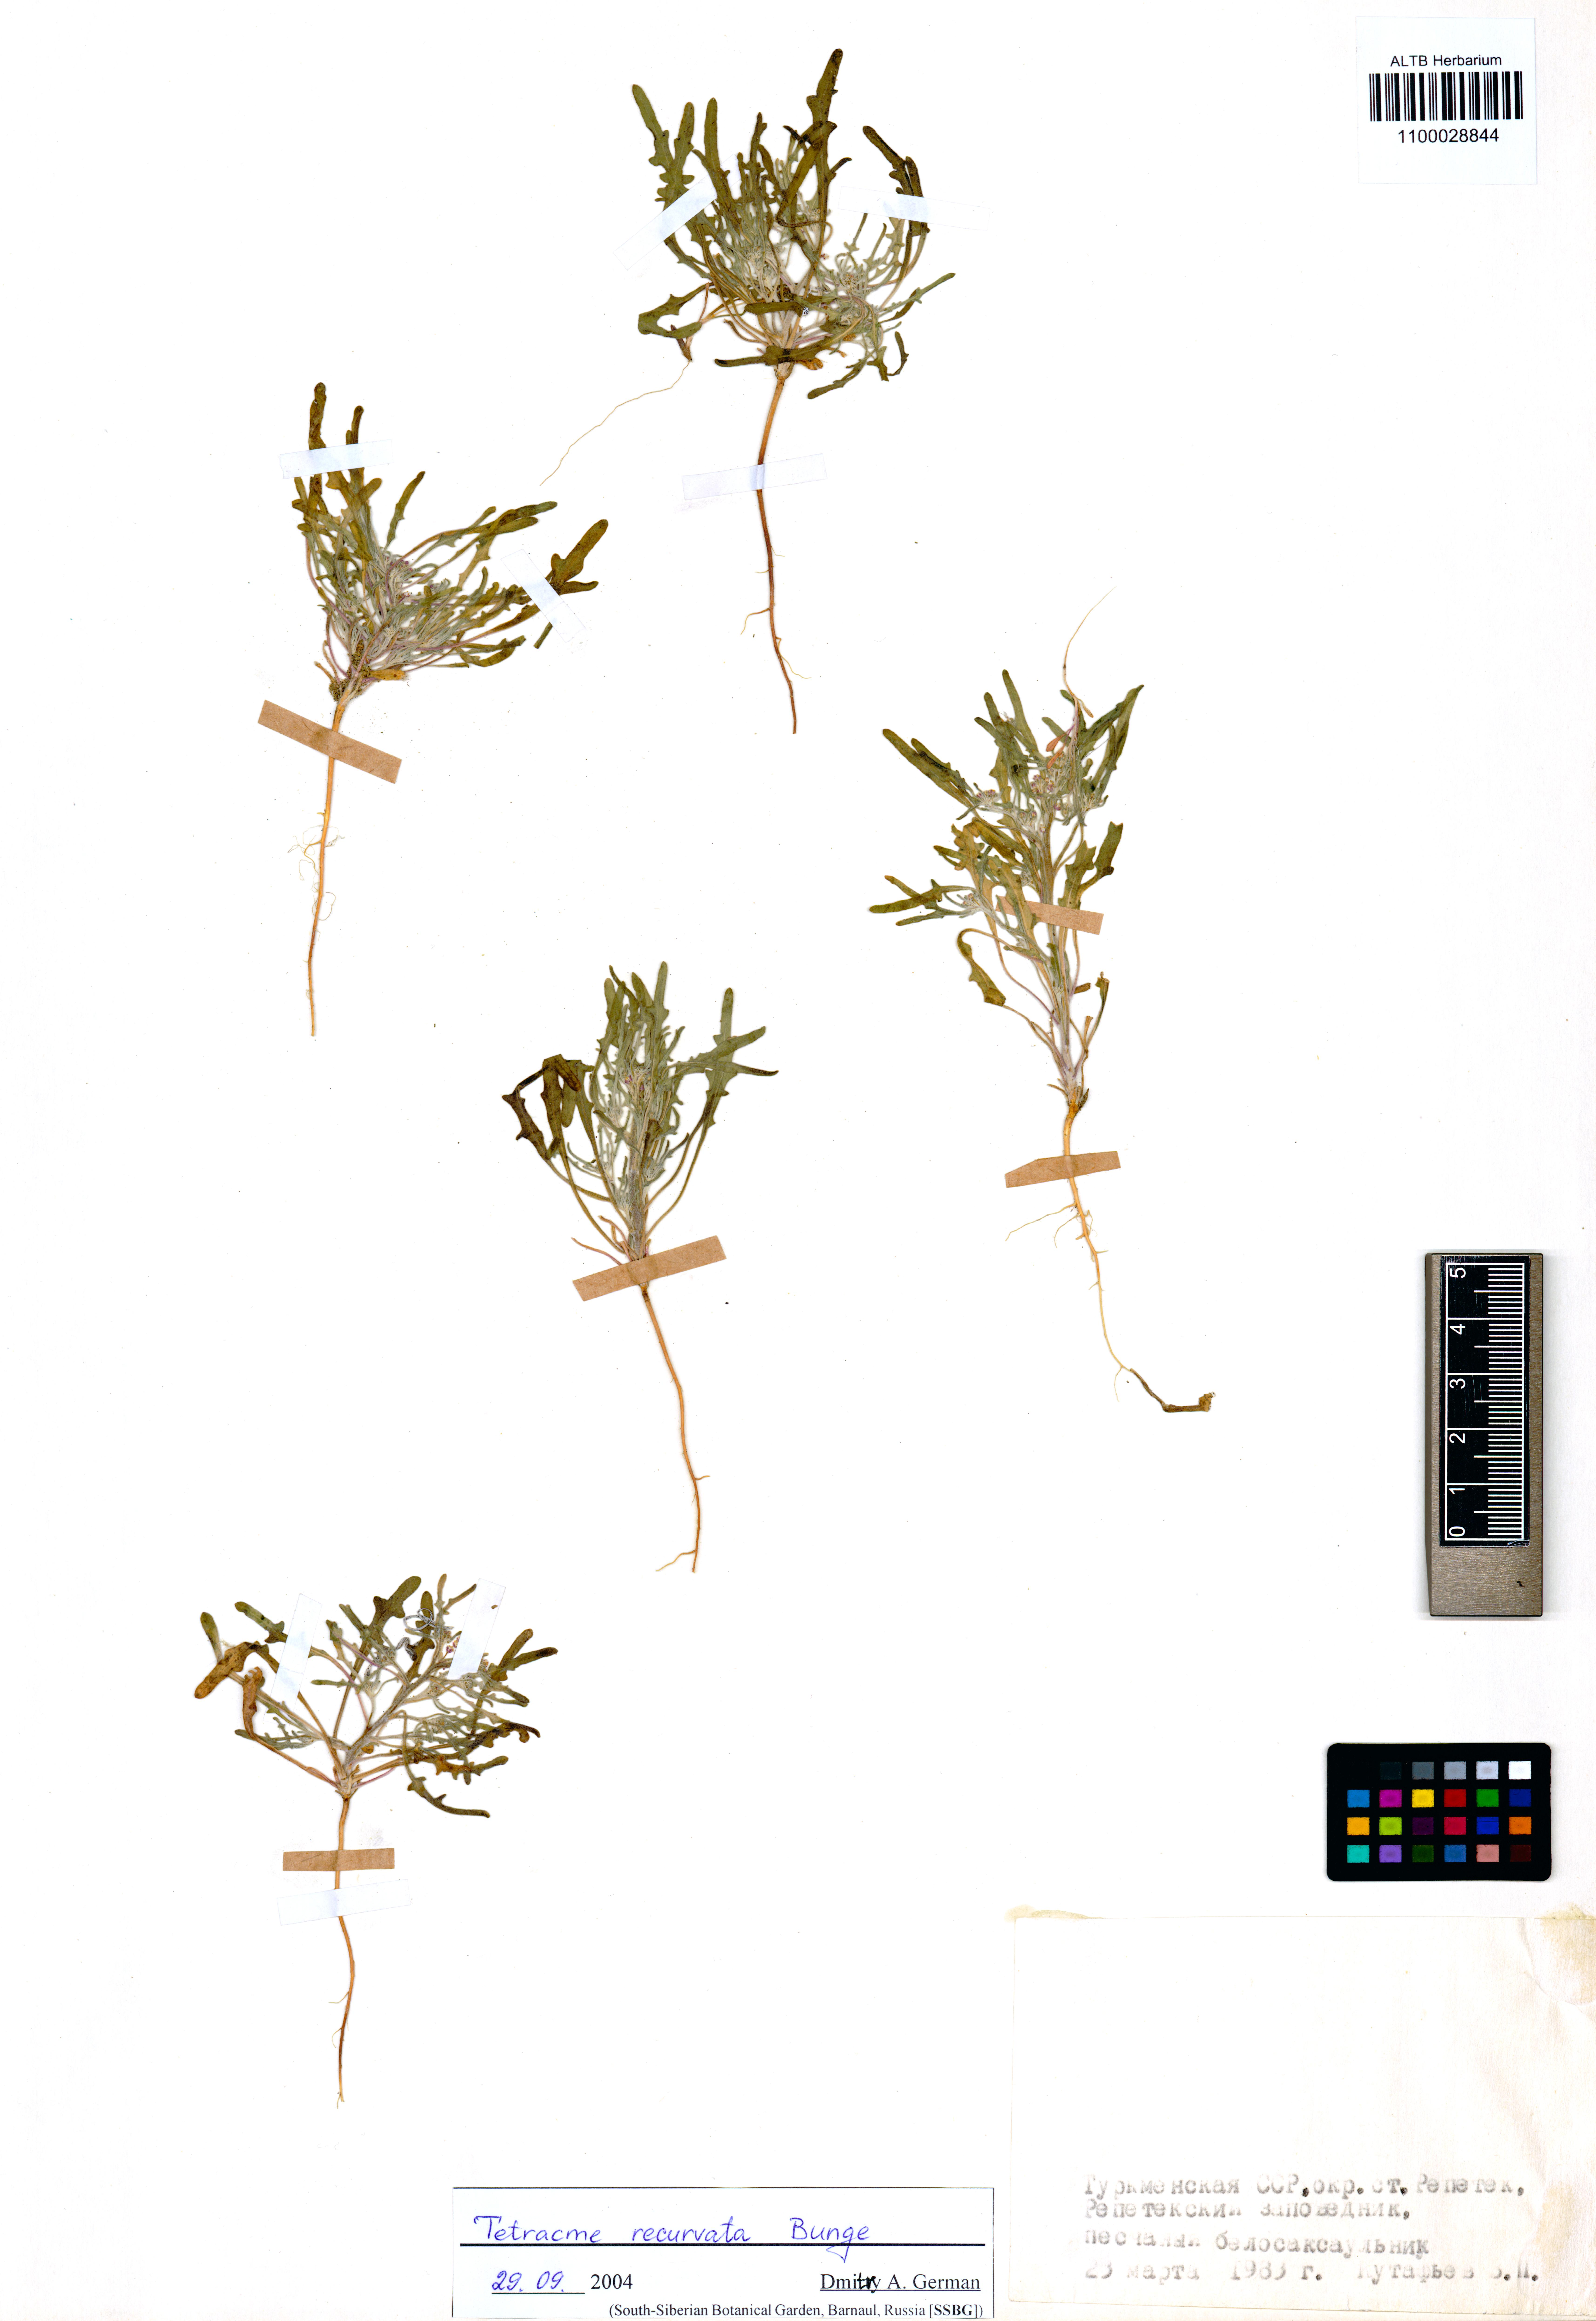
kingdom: Plantae
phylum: Tracheophyta
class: Magnoliopsida
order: Brassicales
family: Brassicaceae
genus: Tetracme
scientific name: Tetracme recurvata
